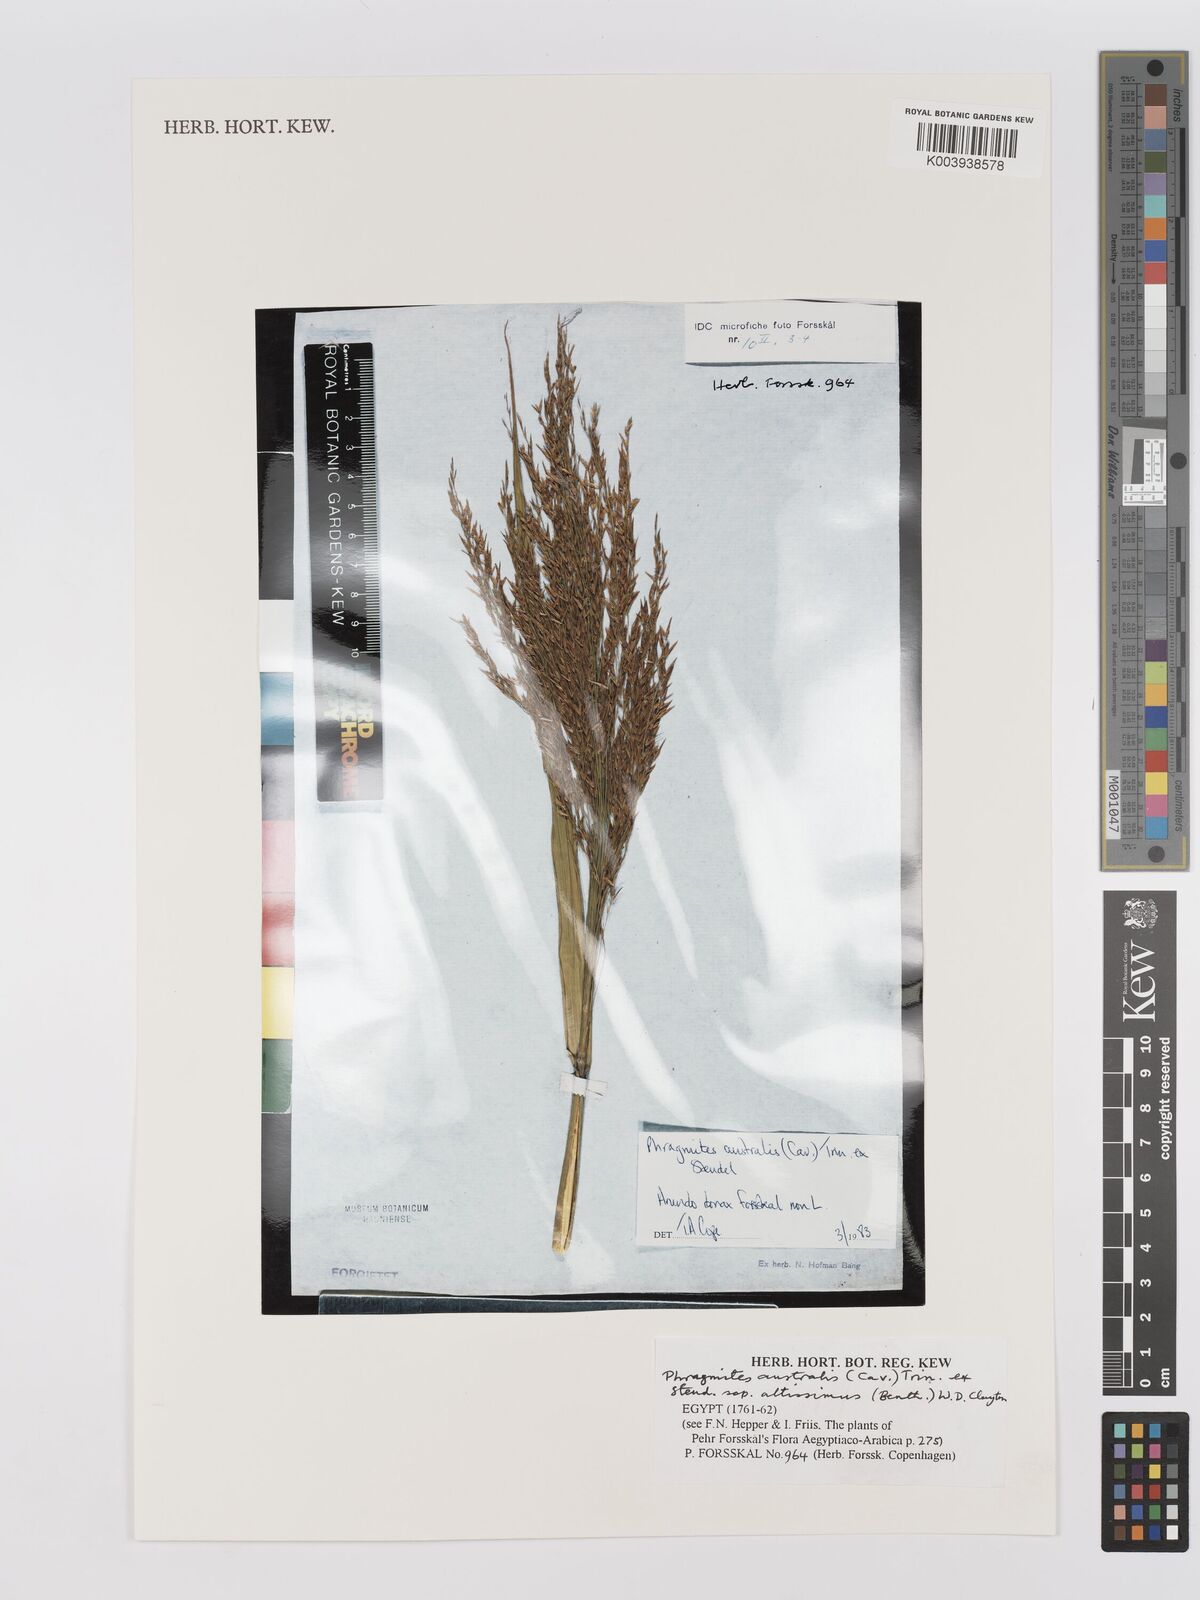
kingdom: Plantae
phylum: Tracheophyta
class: Liliopsida
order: Poales
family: Poaceae
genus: Phragmites
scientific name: Phragmites australis
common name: Common reed
